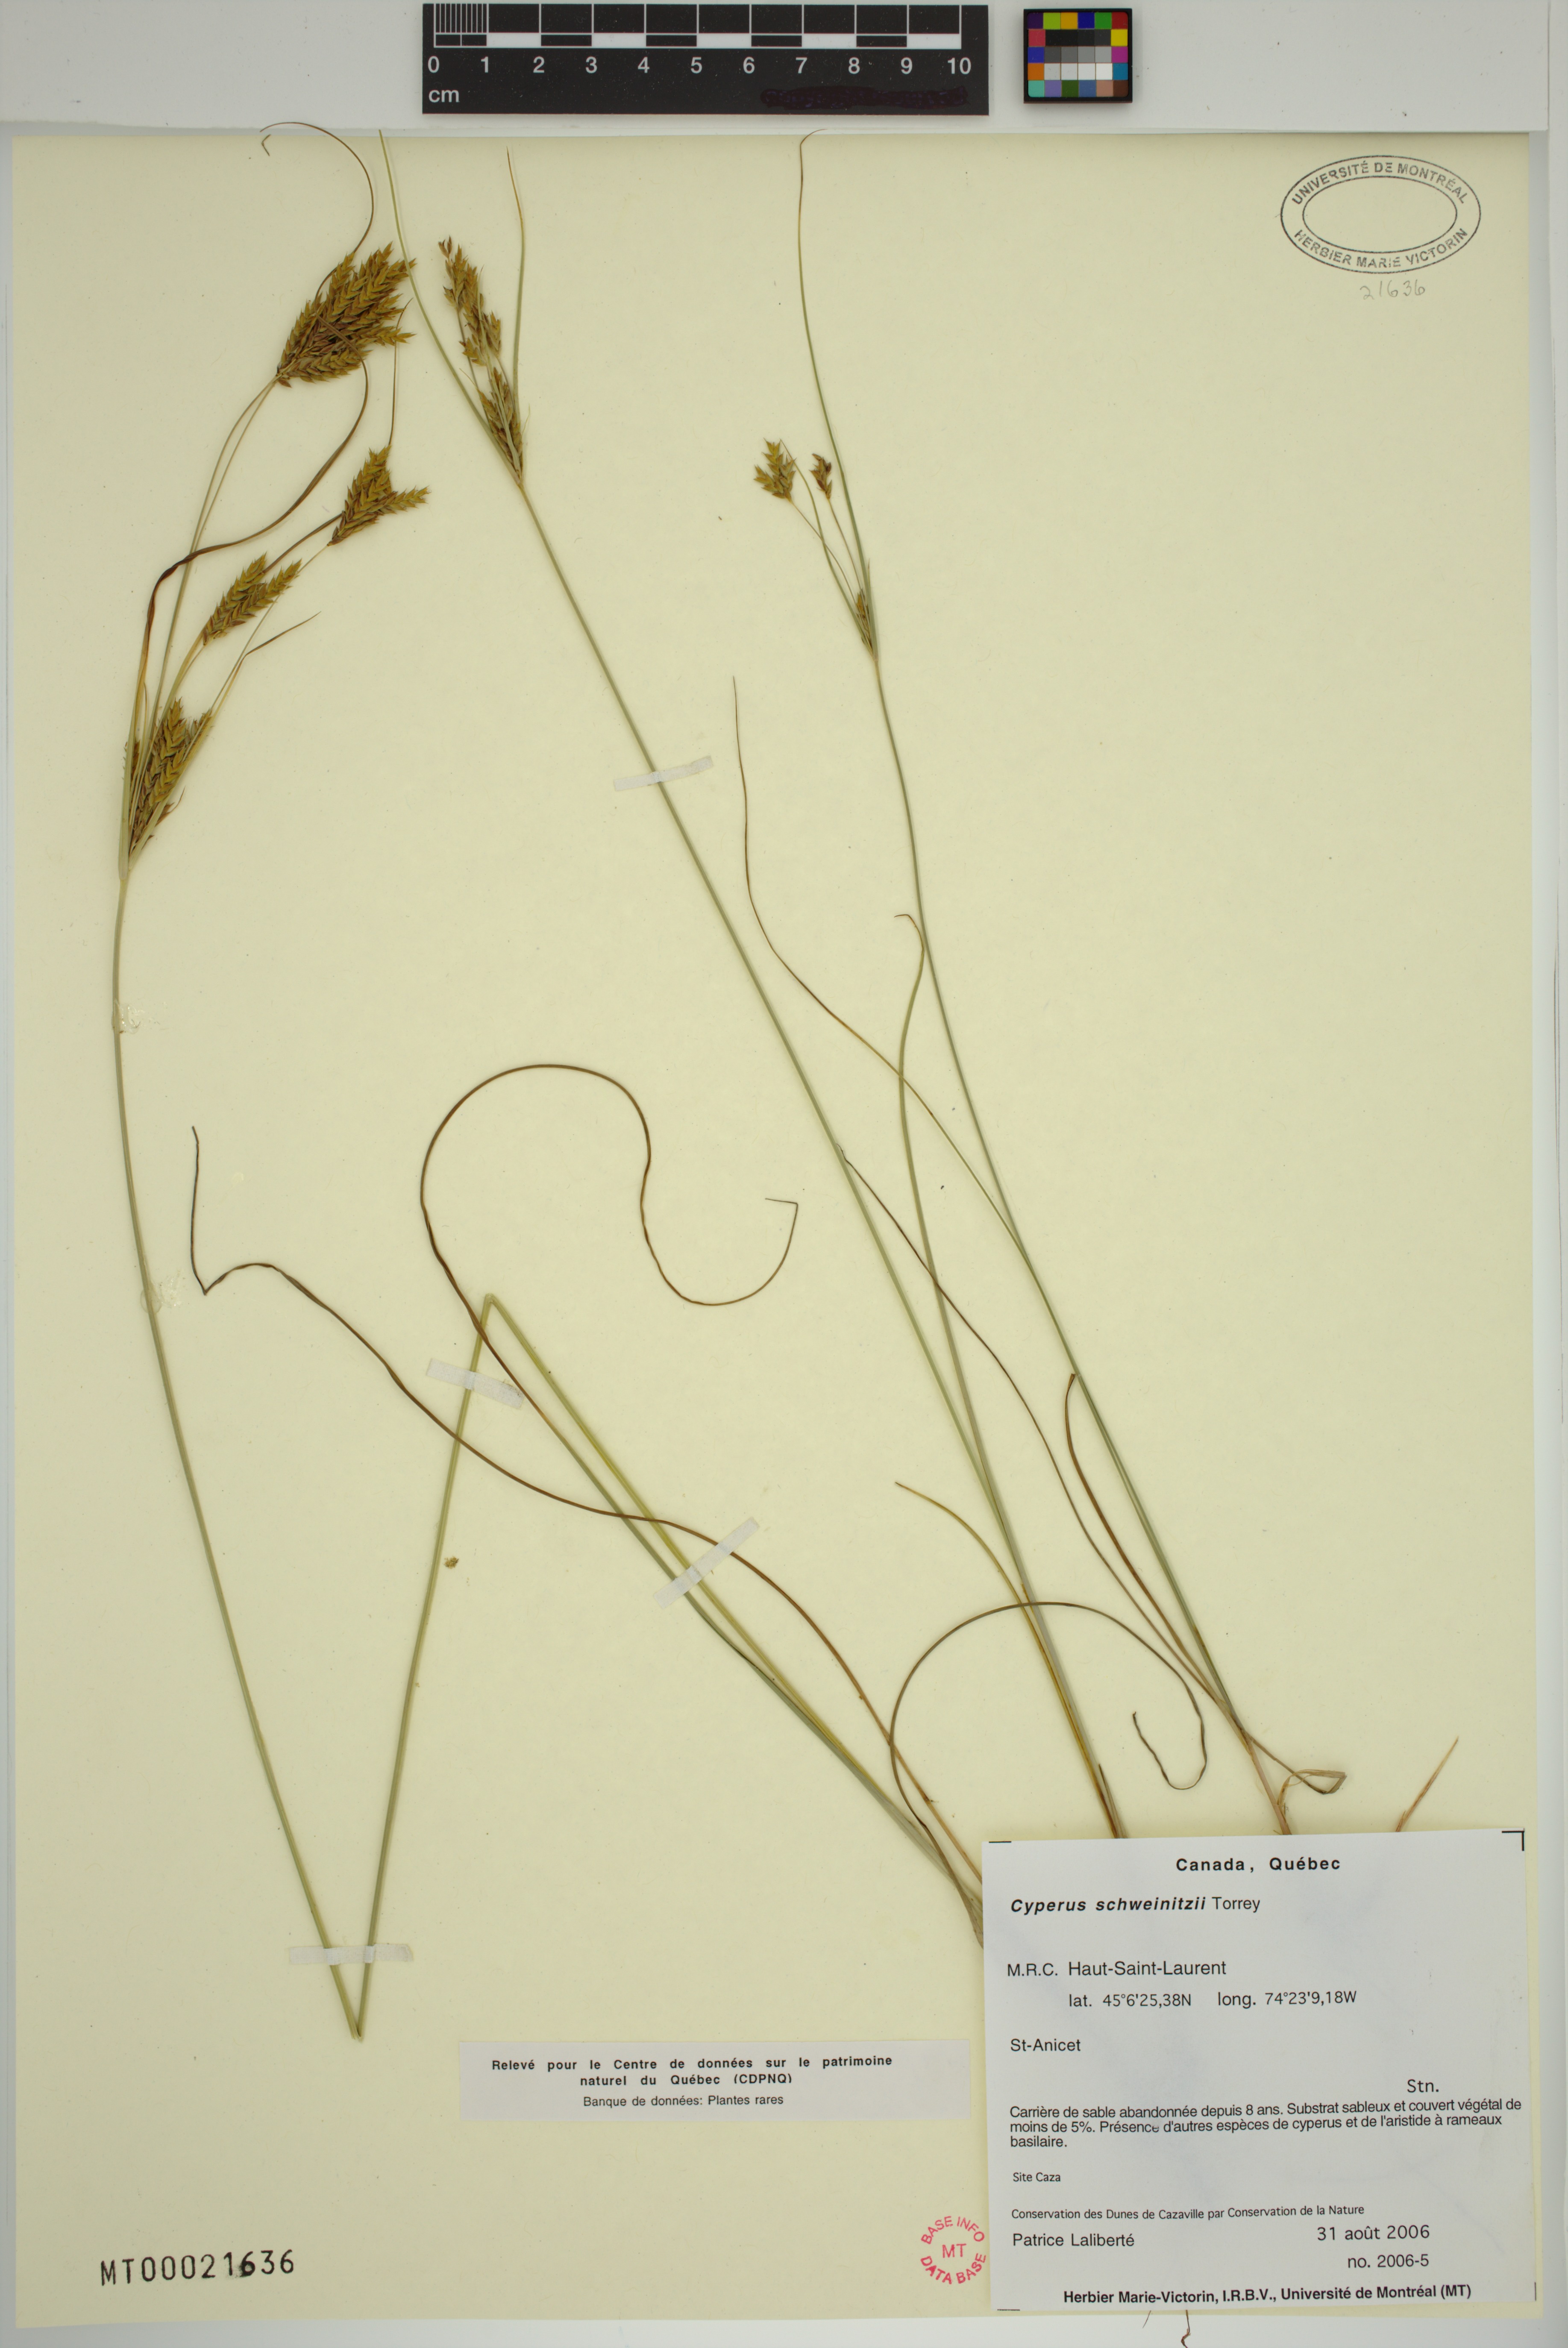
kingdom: Plantae
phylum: Tracheophyta
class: Liliopsida
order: Poales
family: Cyperaceae
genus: Cyperus
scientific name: Cyperus schweinitzii
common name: Schweinitz's cyperus
